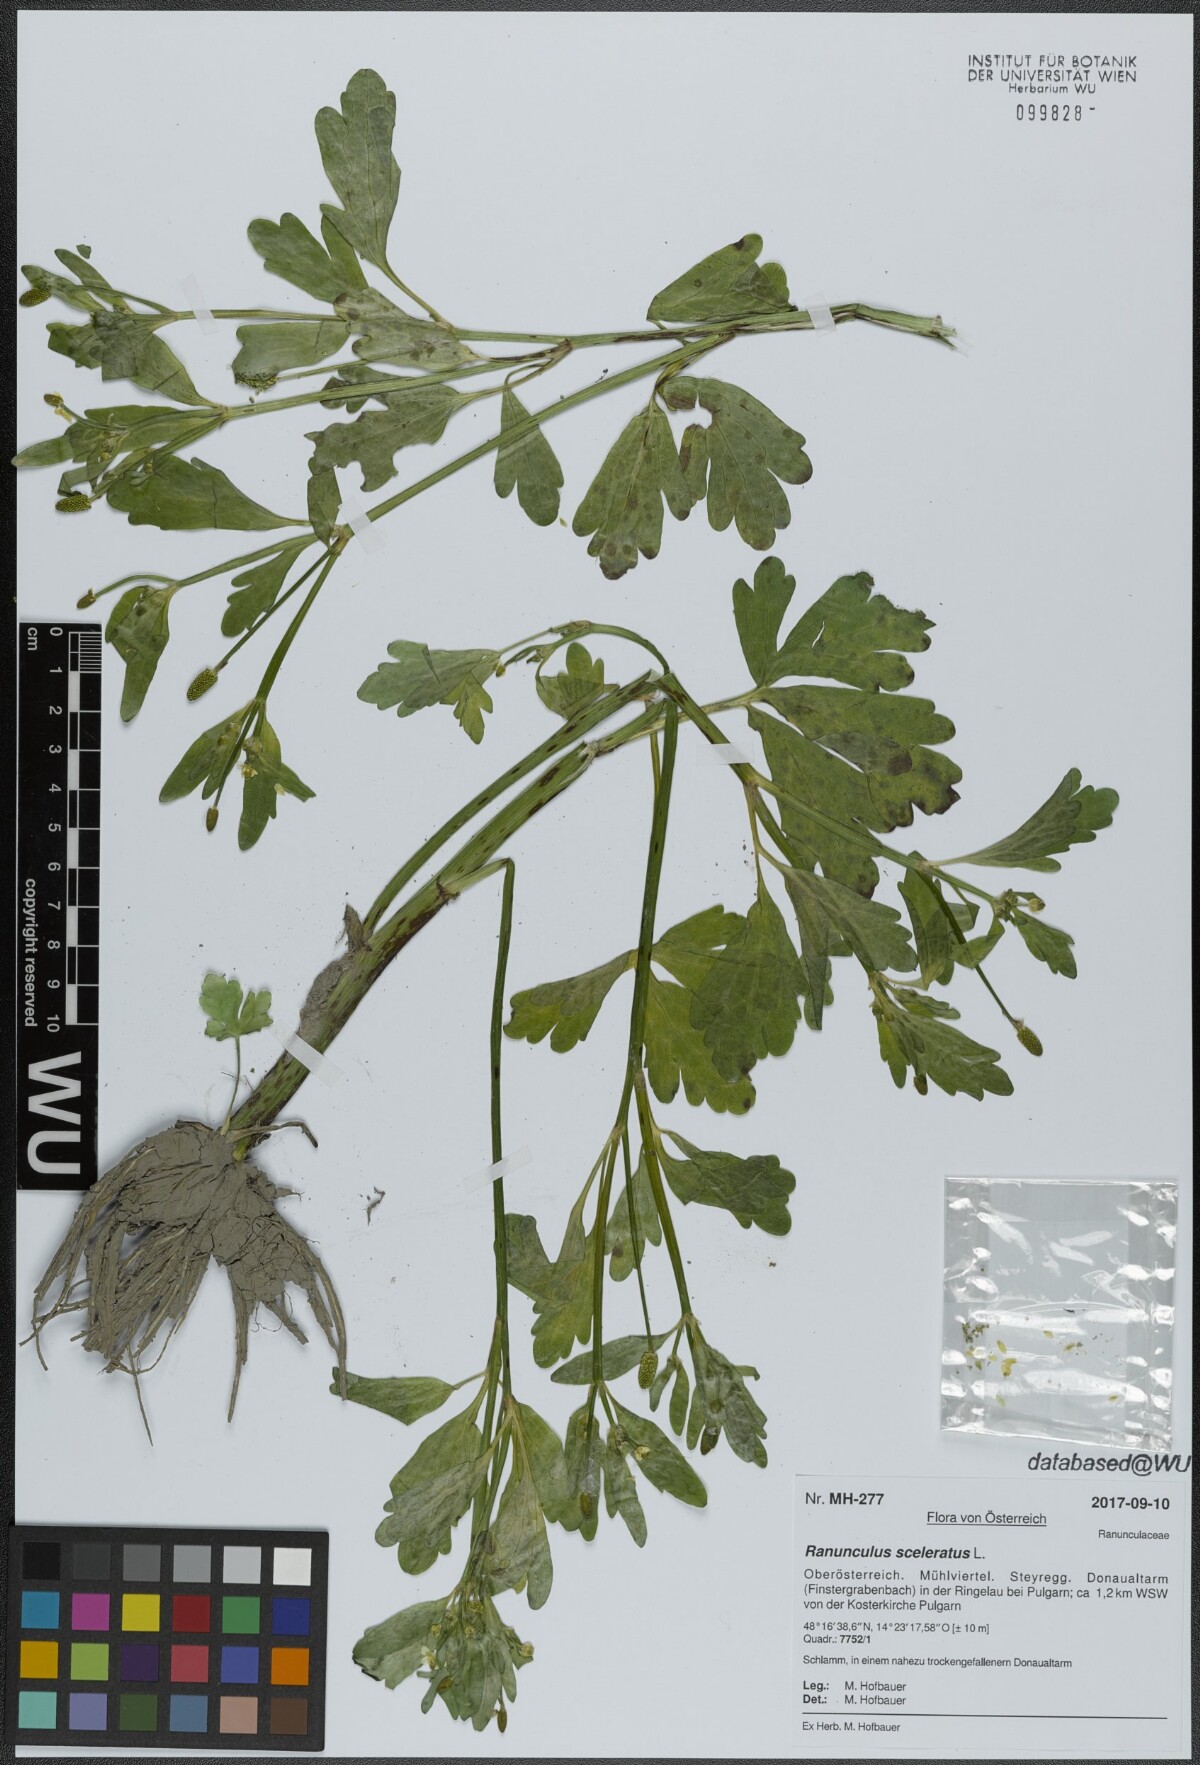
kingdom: Plantae
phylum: Tracheophyta
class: Magnoliopsida
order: Ranunculales
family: Ranunculaceae
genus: Ranunculus
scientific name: Ranunculus sceleratus
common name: Celery-leaved buttercup
